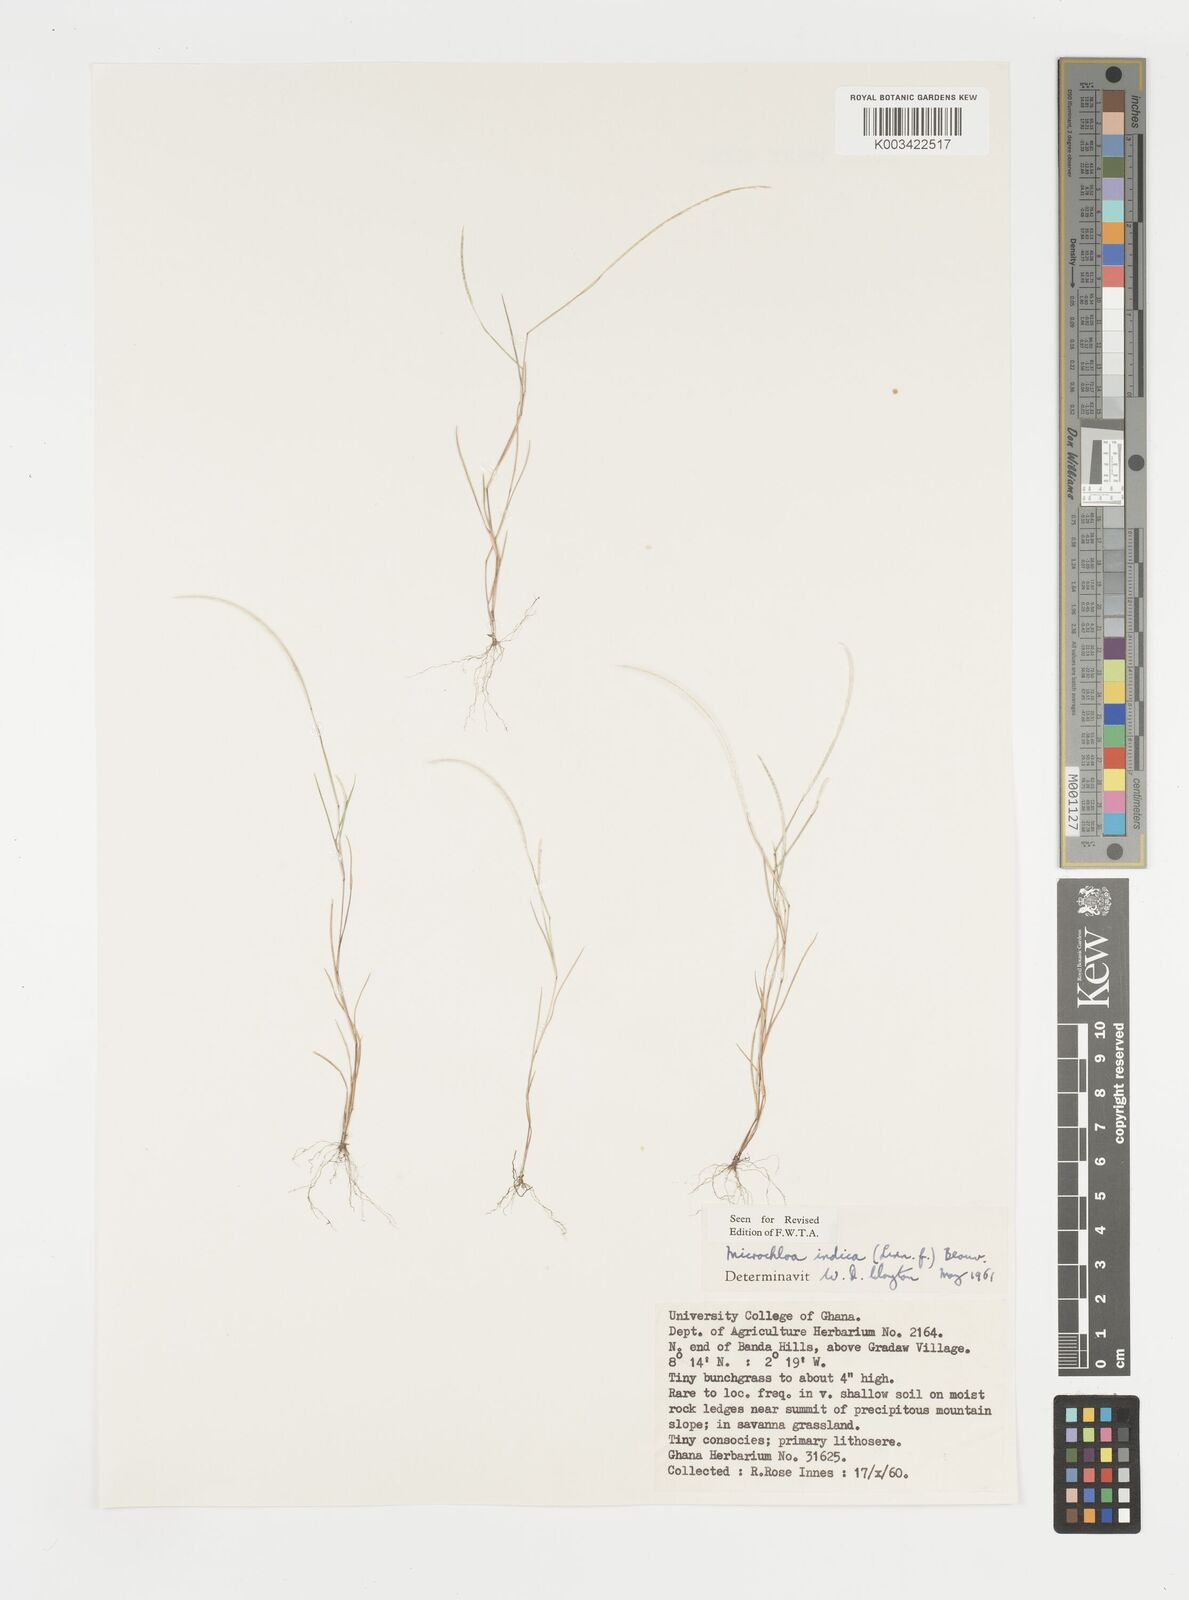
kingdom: Plantae
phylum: Tracheophyta
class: Liliopsida
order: Poales
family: Poaceae
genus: Microchloa
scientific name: Microchloa indica
